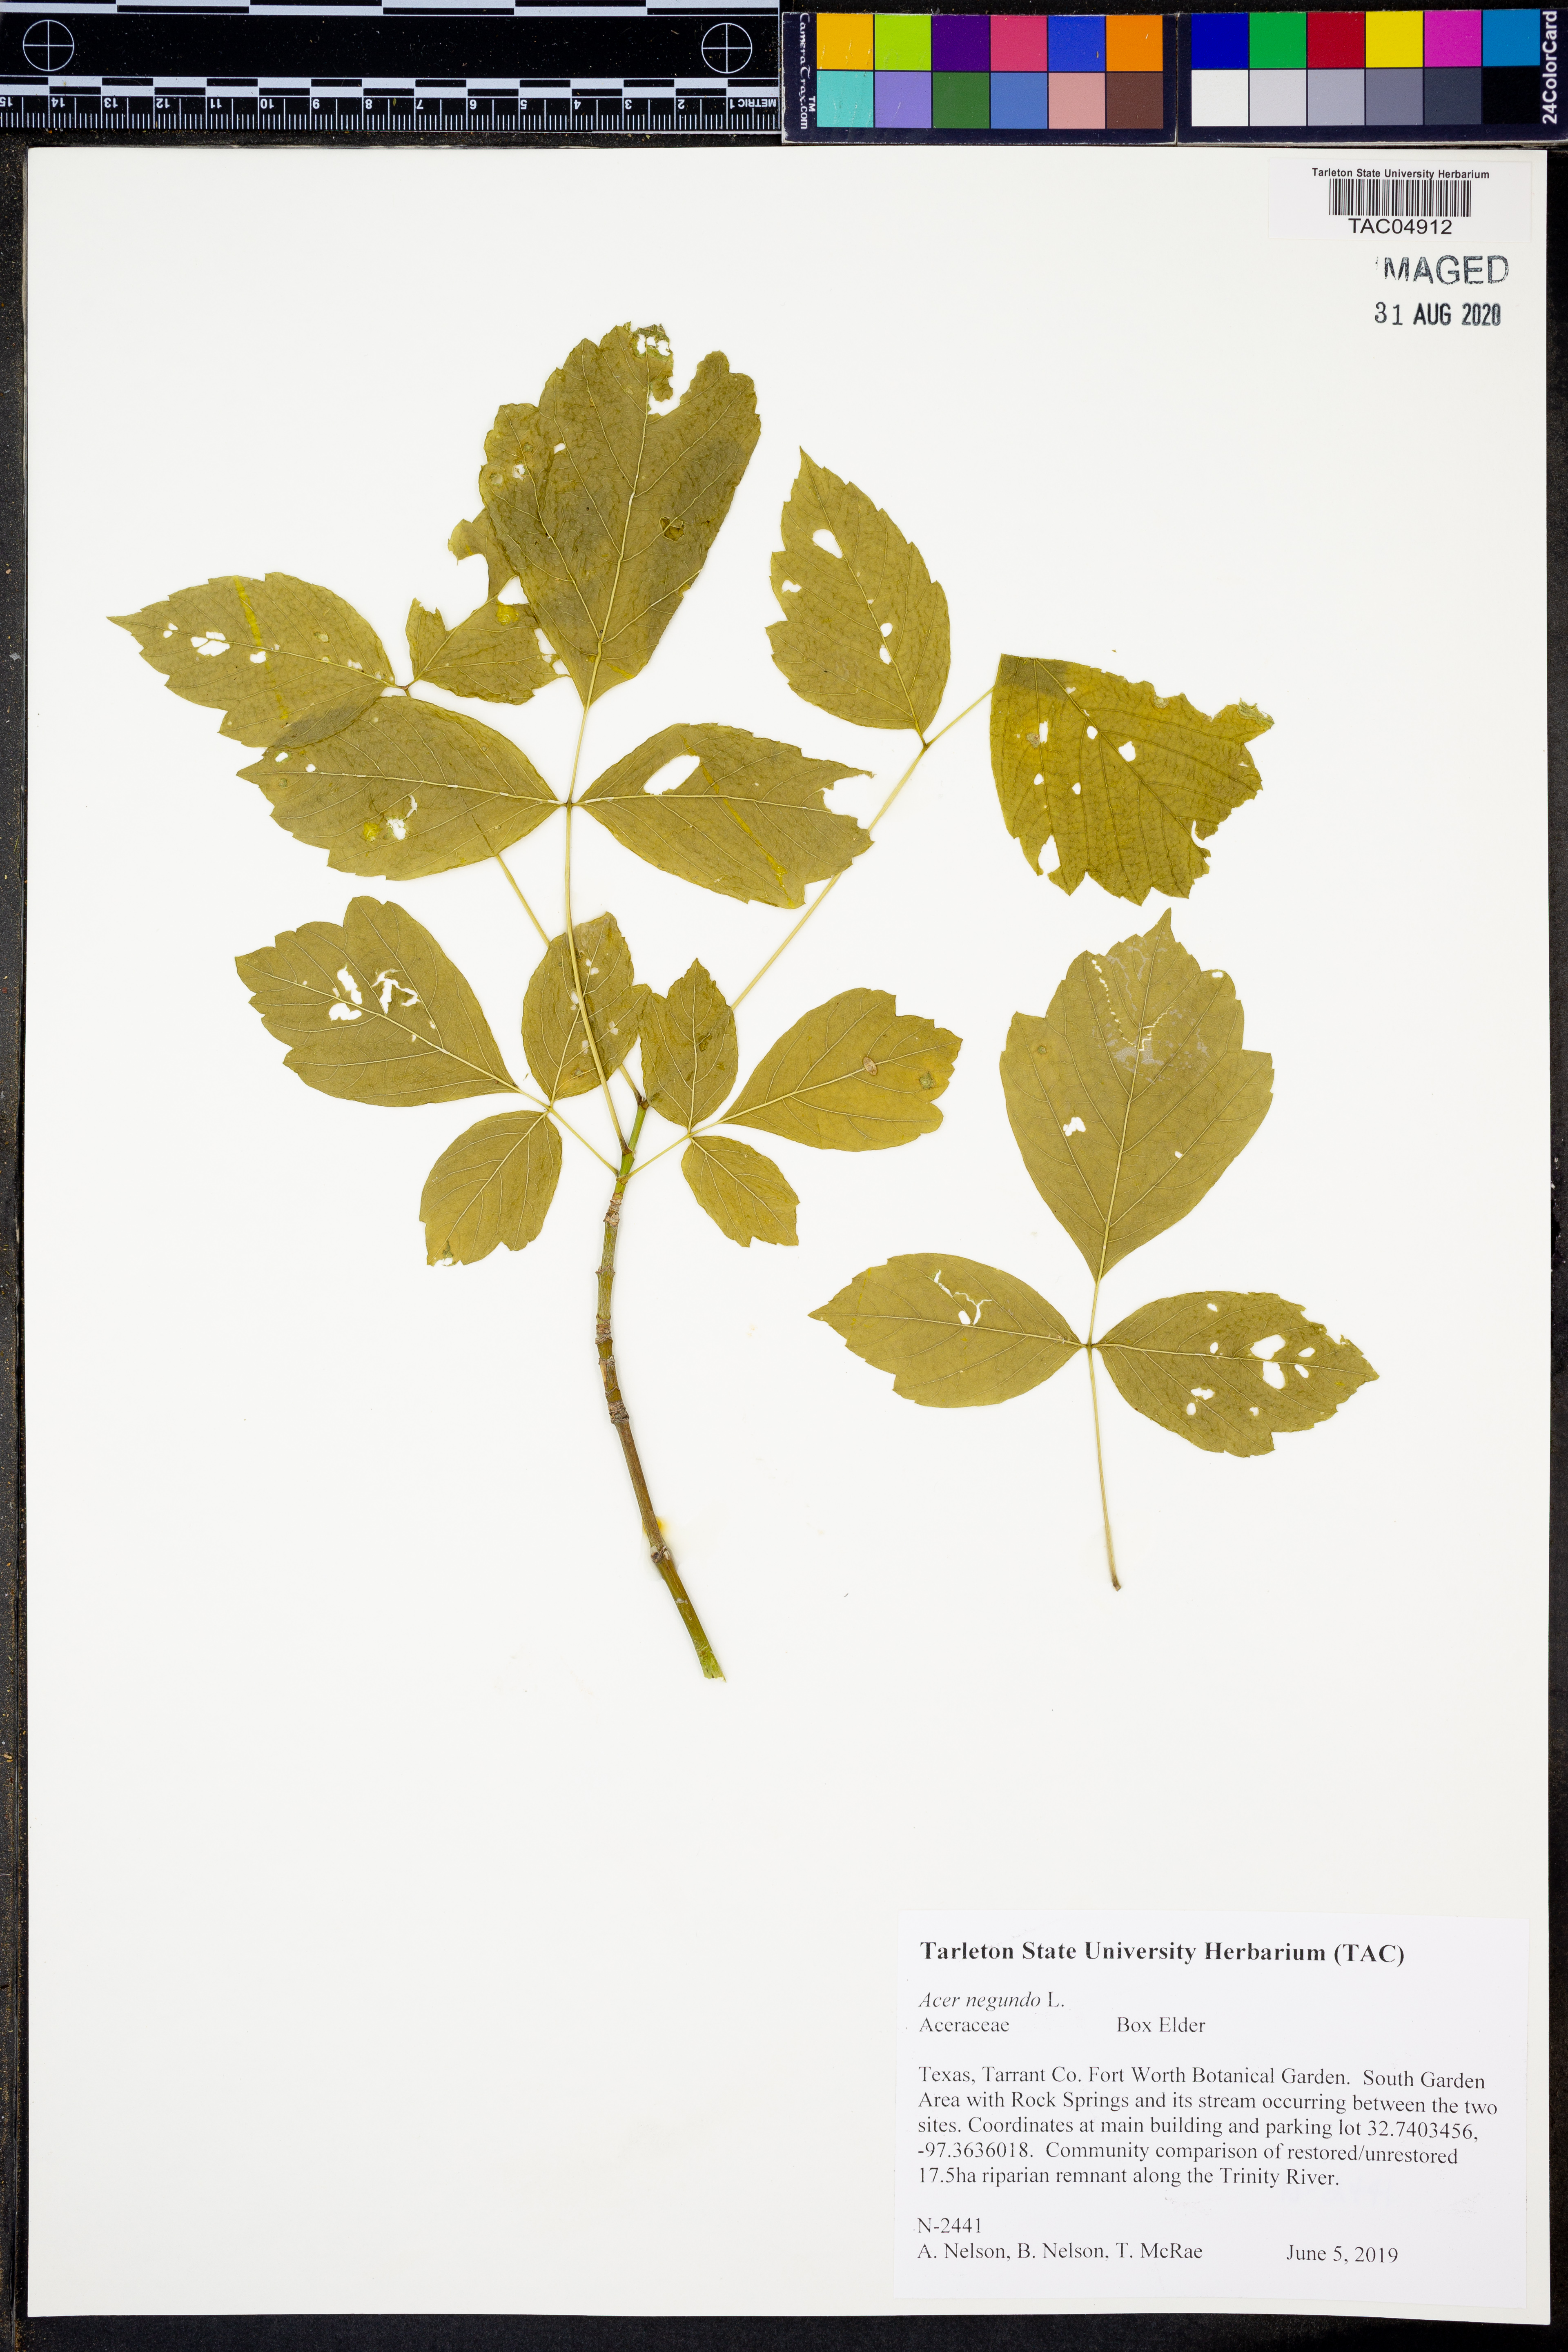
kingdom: Plantae
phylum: Tracheophyta
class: Magnoliopsida
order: Sapindales
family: Sapindaceae
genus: Acer
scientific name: Acer negundo
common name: Ashleaf maple
